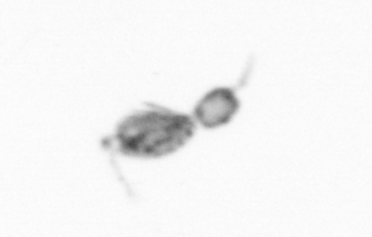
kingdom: Animalia
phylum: Arthropoda
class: Copepoda
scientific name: Copepoda
